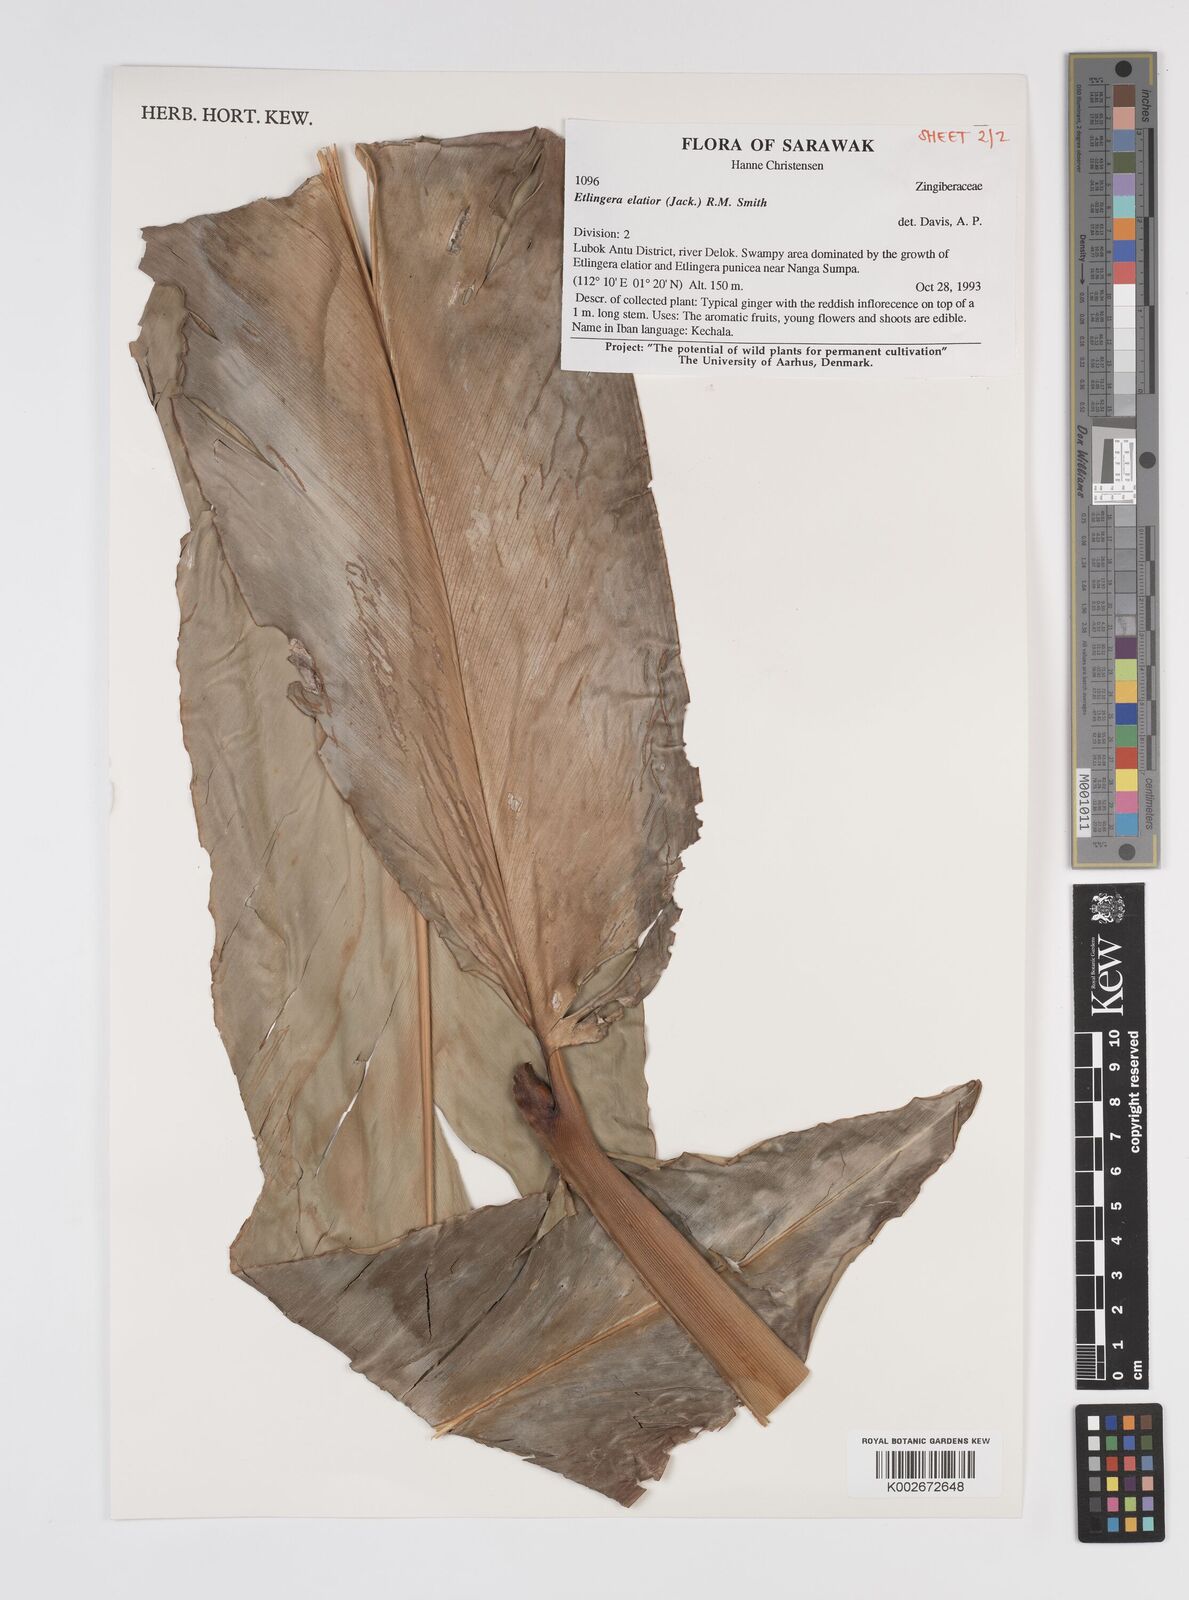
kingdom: Plantae
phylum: Tracheophyta
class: Liliopsida
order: Zingiberales
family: Zingiberaceae
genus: Etlingera
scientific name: Etlingera elatior
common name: Philippine waxflower
